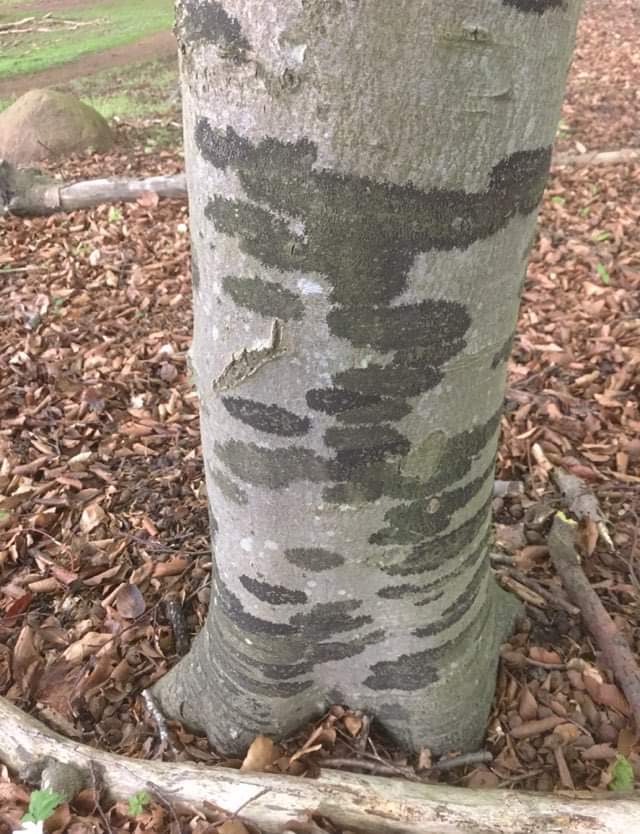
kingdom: Fungi
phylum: Ascomycota
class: Leotiomycetes
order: Rhytismatales
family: Ascodichaenaceae
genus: Ascodichaena
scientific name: Ascodichaena rugosa
